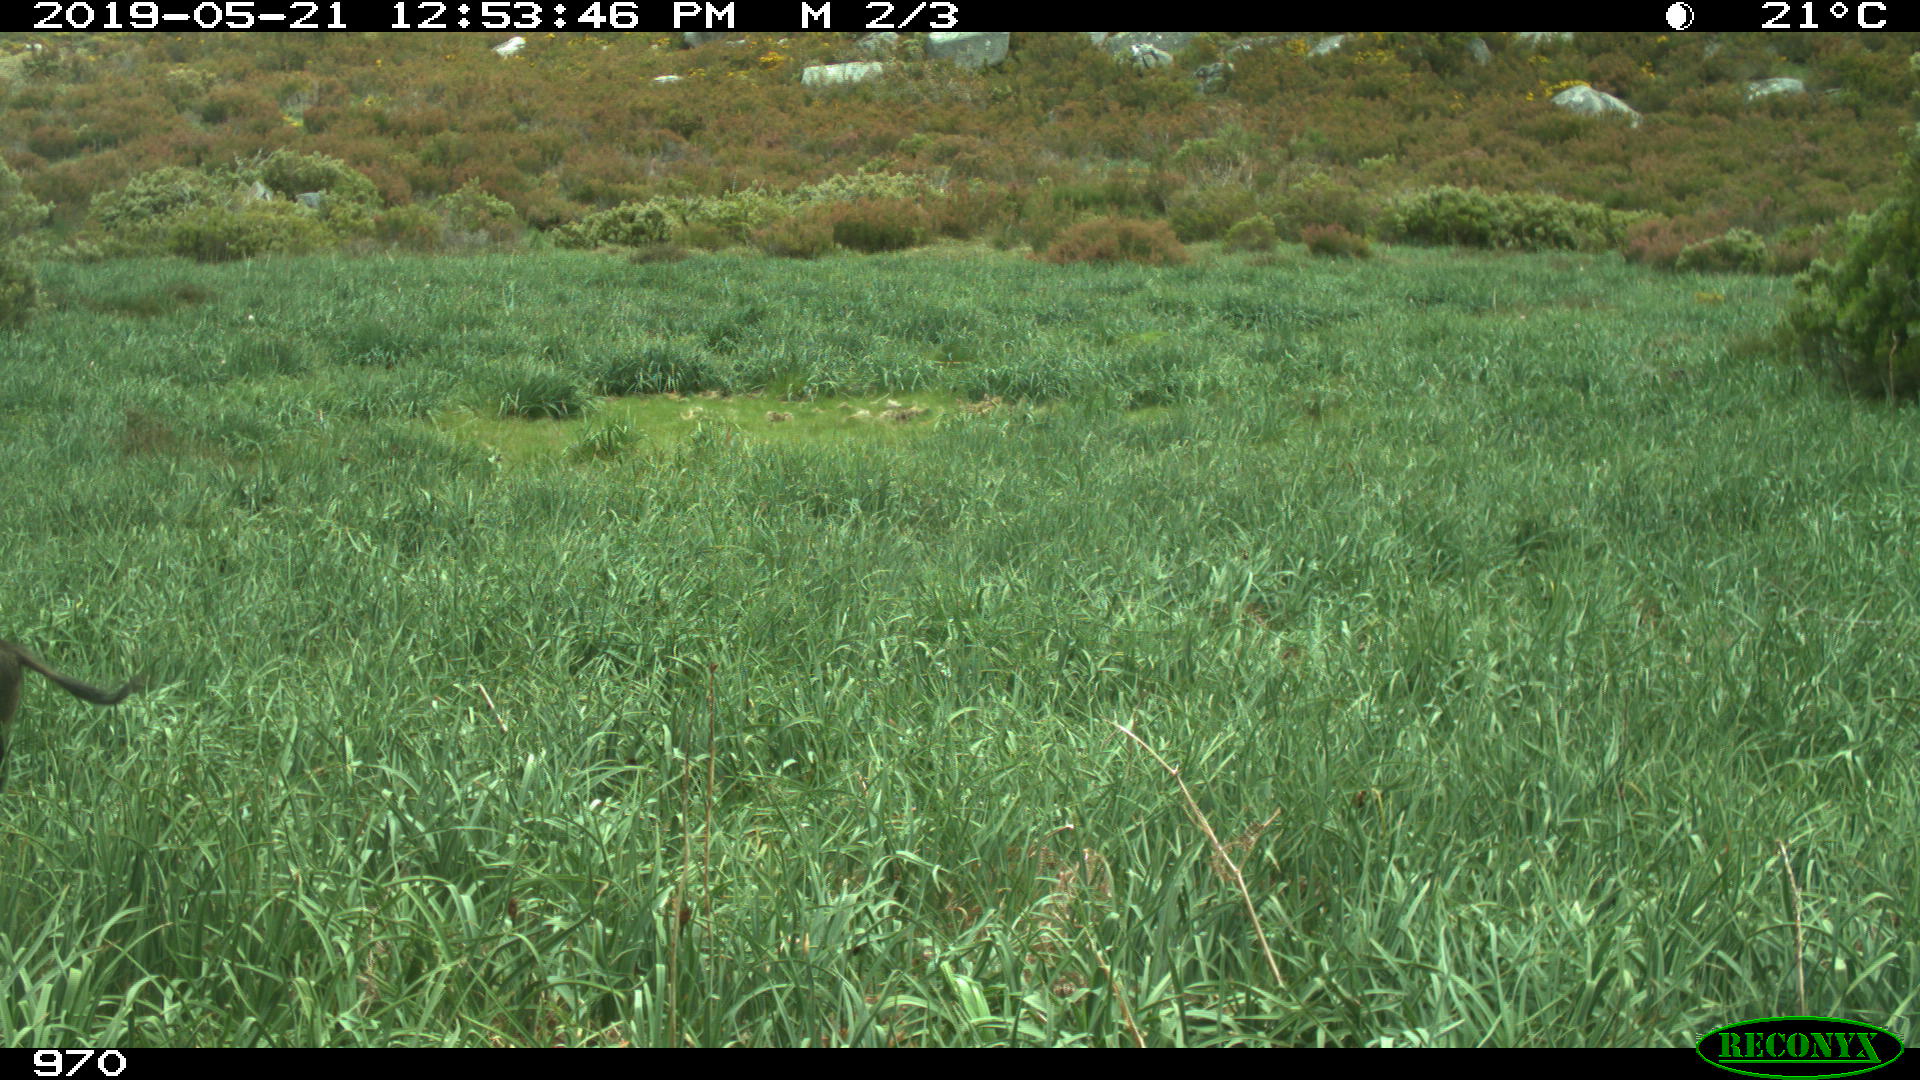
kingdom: Animalia
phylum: Chordata
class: Mammalia
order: Artiodactyla
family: Suidae
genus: Sus
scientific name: Sus scrofa
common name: Wild boar
